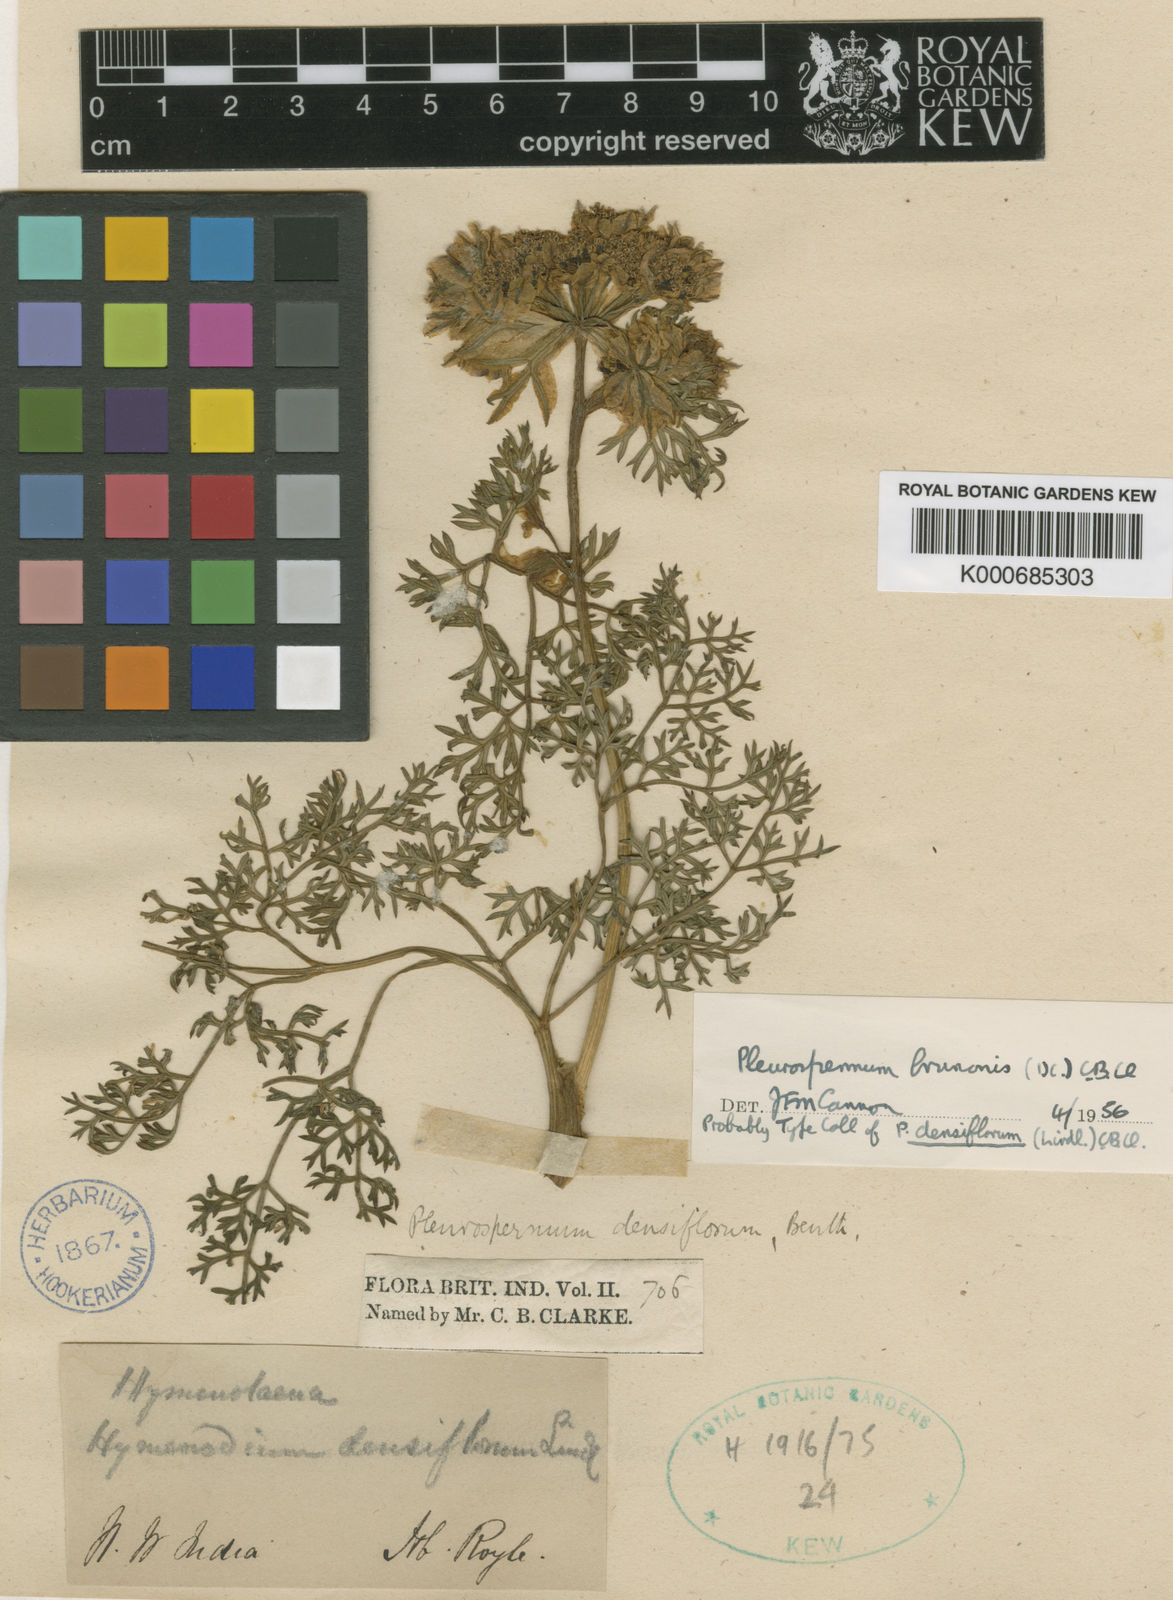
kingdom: Plantae
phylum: Tracheophyta
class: Magnoliopsida
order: Apiales
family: Apiaceae
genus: Hymenidium
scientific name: Hymenidium brunonis
